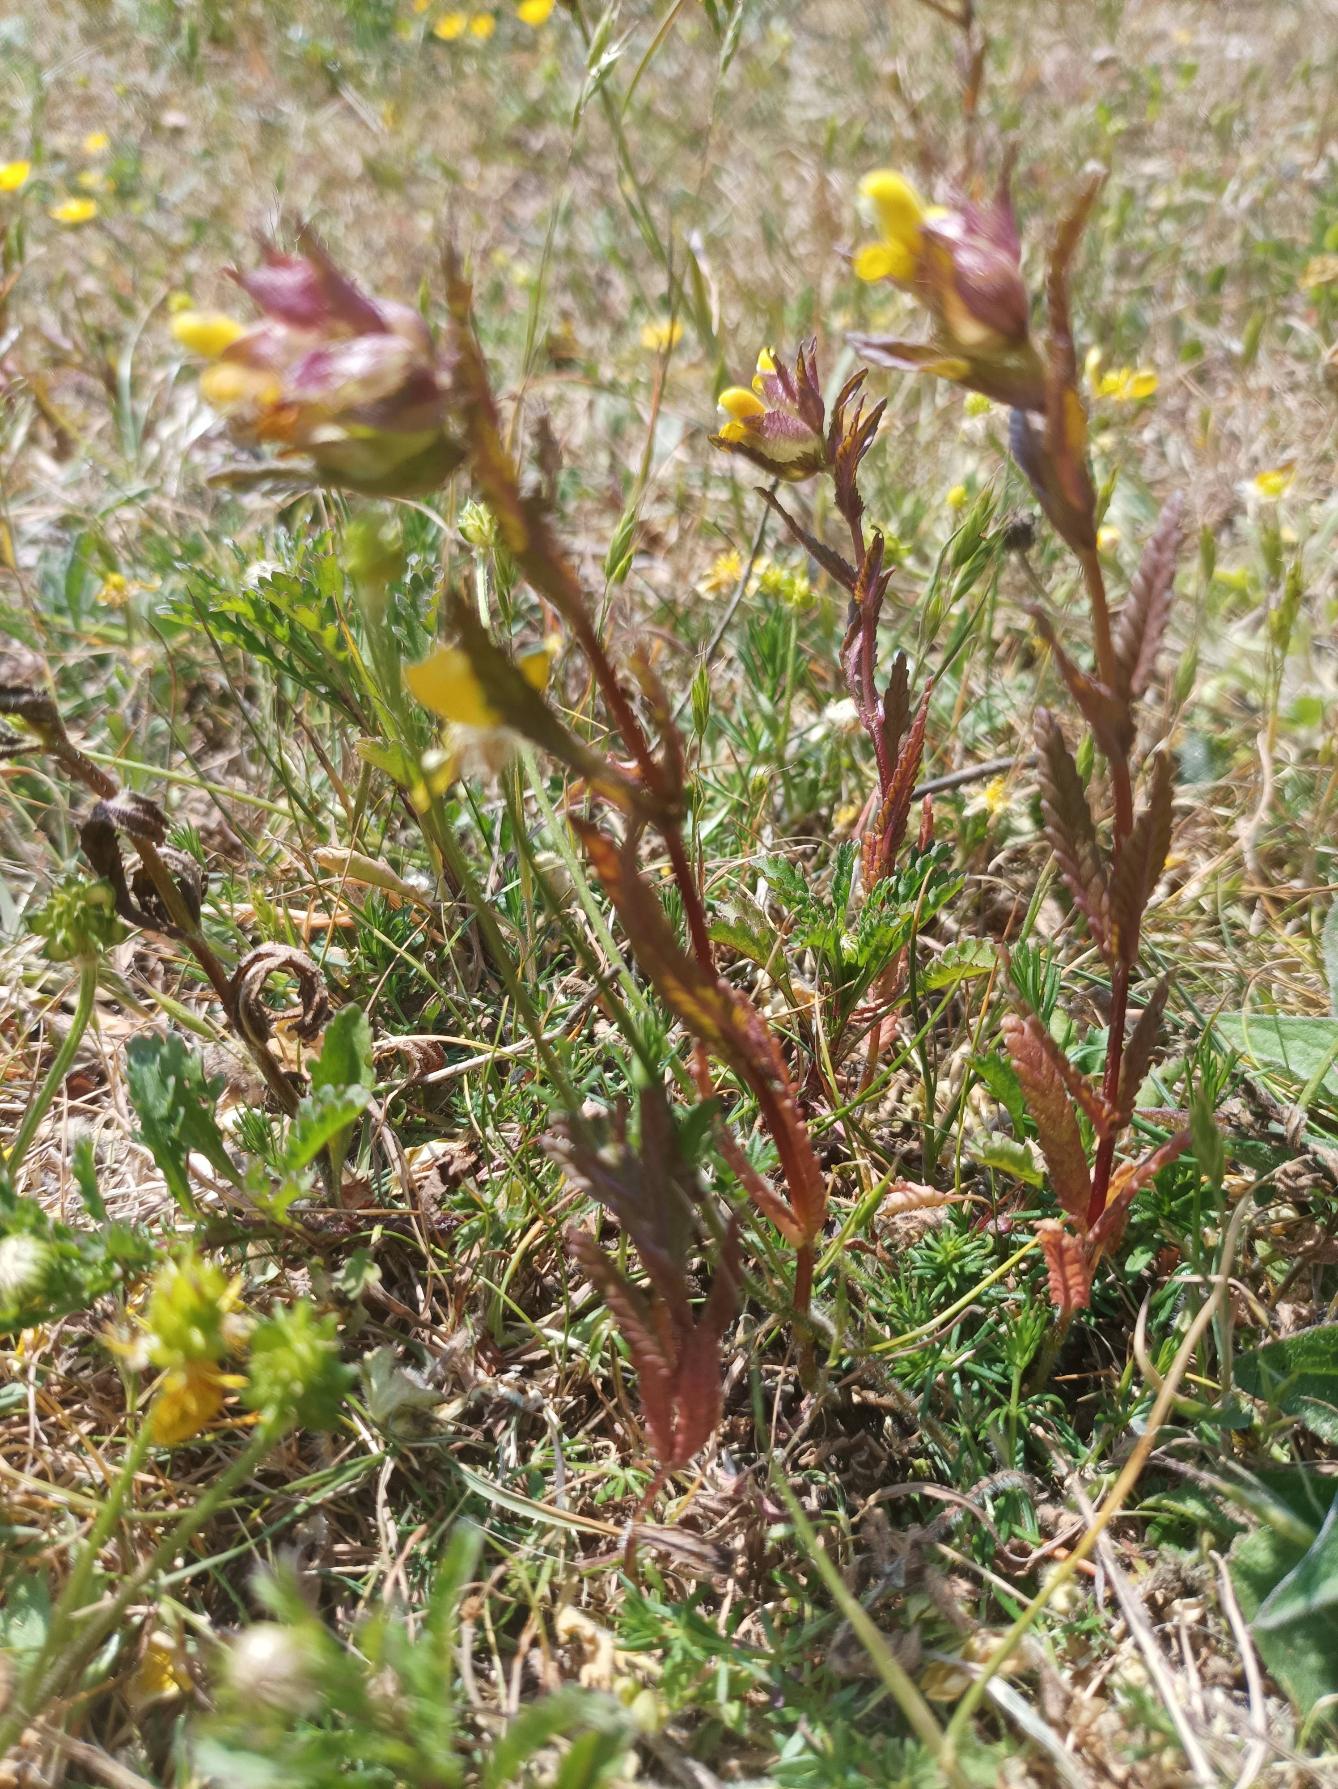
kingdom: Plantae
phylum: Tracheophyta
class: Magnoliopsida
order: Lamiales
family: Orobanchaceae
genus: Rhinanthus
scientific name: Rhinanthus minor
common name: Liden skjaller
